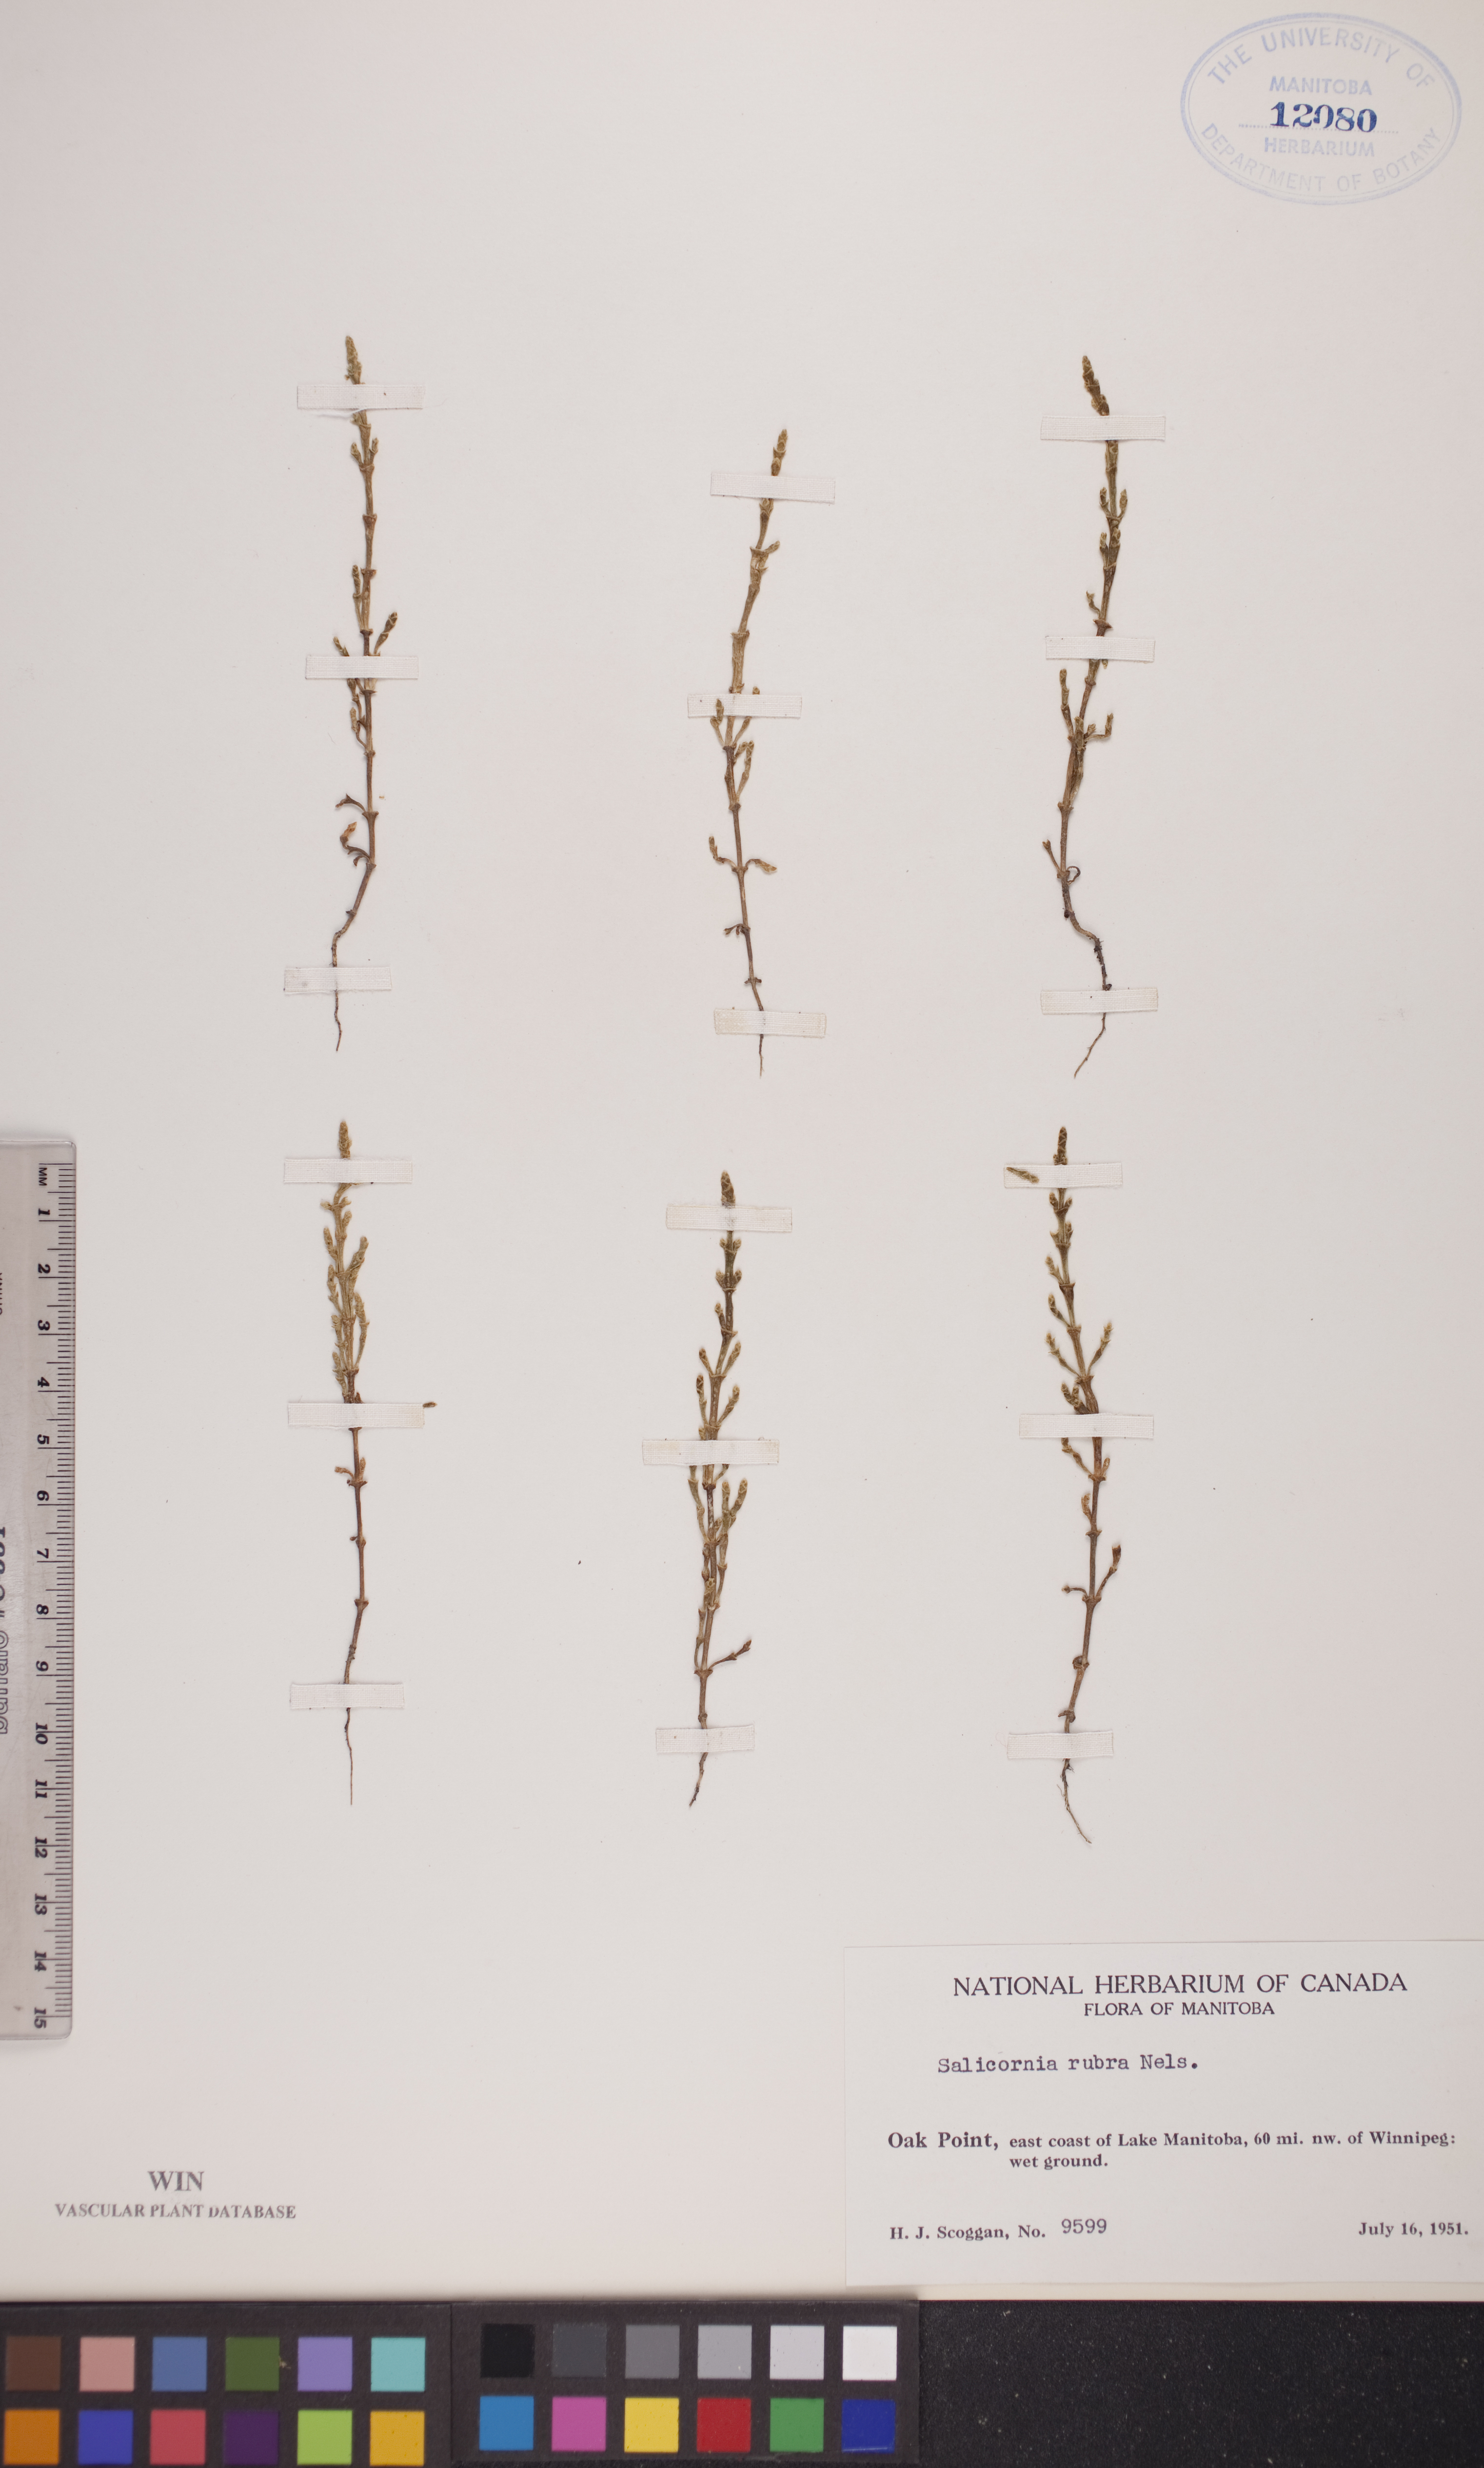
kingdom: Plantae
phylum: Tracheophyta
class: Magnoliopsida
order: Caryophyllales
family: Amaranthaceae
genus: Salicornia
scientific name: Salicornia rubra
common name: Red glasswort
